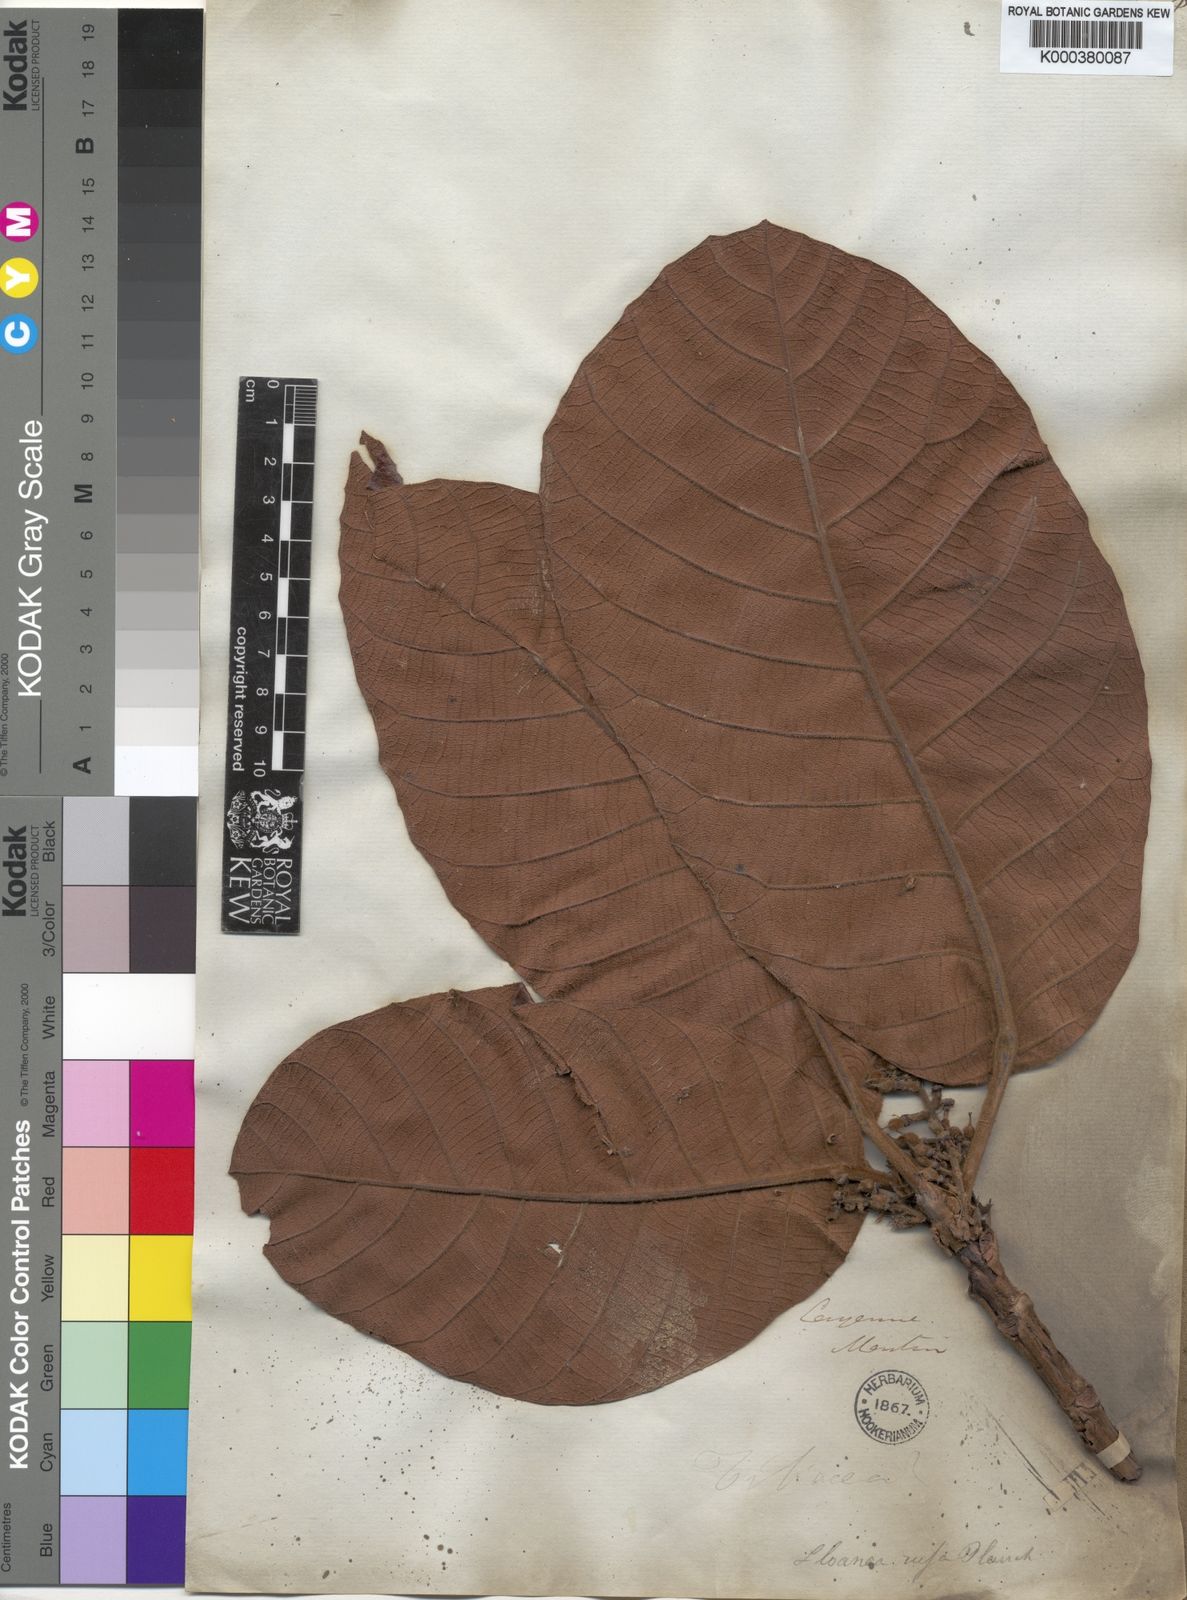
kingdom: Plantae
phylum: Tracheophyta
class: Magnoliopsida
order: Oxalidales
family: Elaeocarpaceae
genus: Sloanea
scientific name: Sloanea rufa
